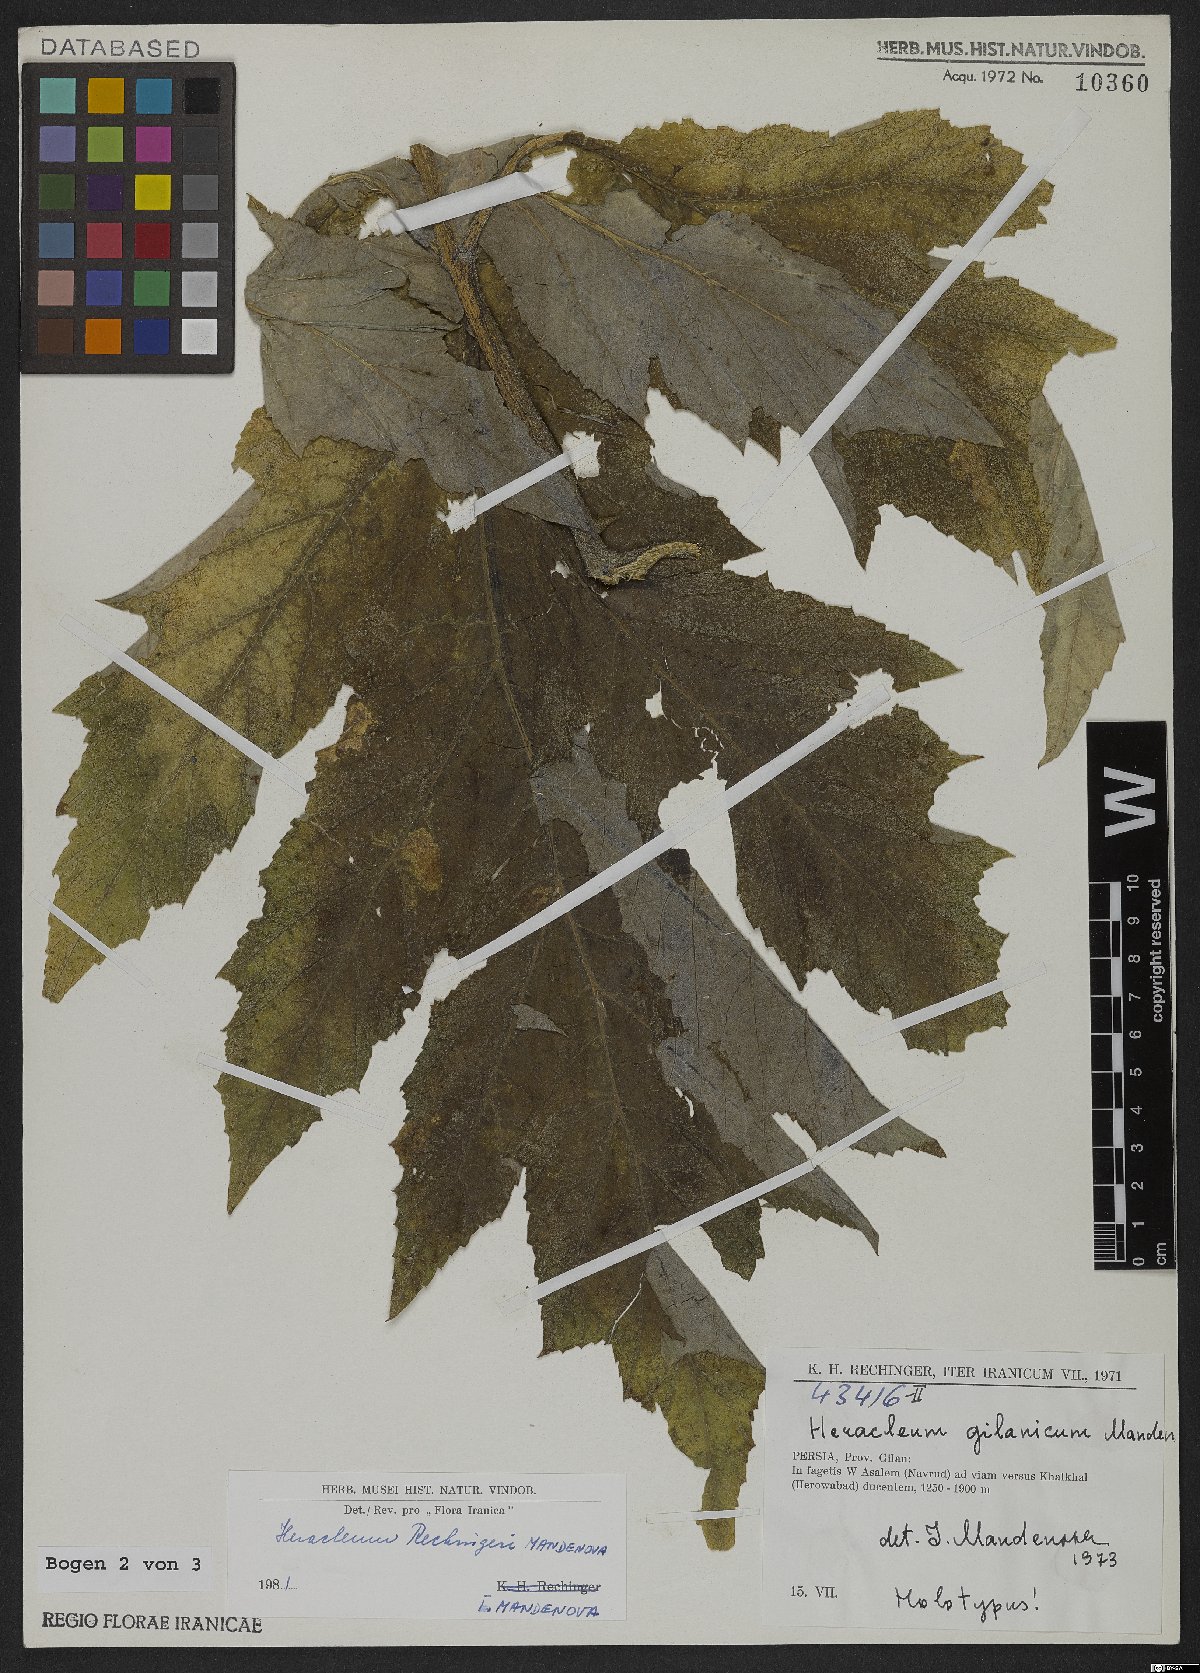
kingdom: Plantae
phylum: Tracheophyta
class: Magnoliopsida
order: Apiales
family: Apiaceae
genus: Heracleum
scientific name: Heracleum rechingeri
